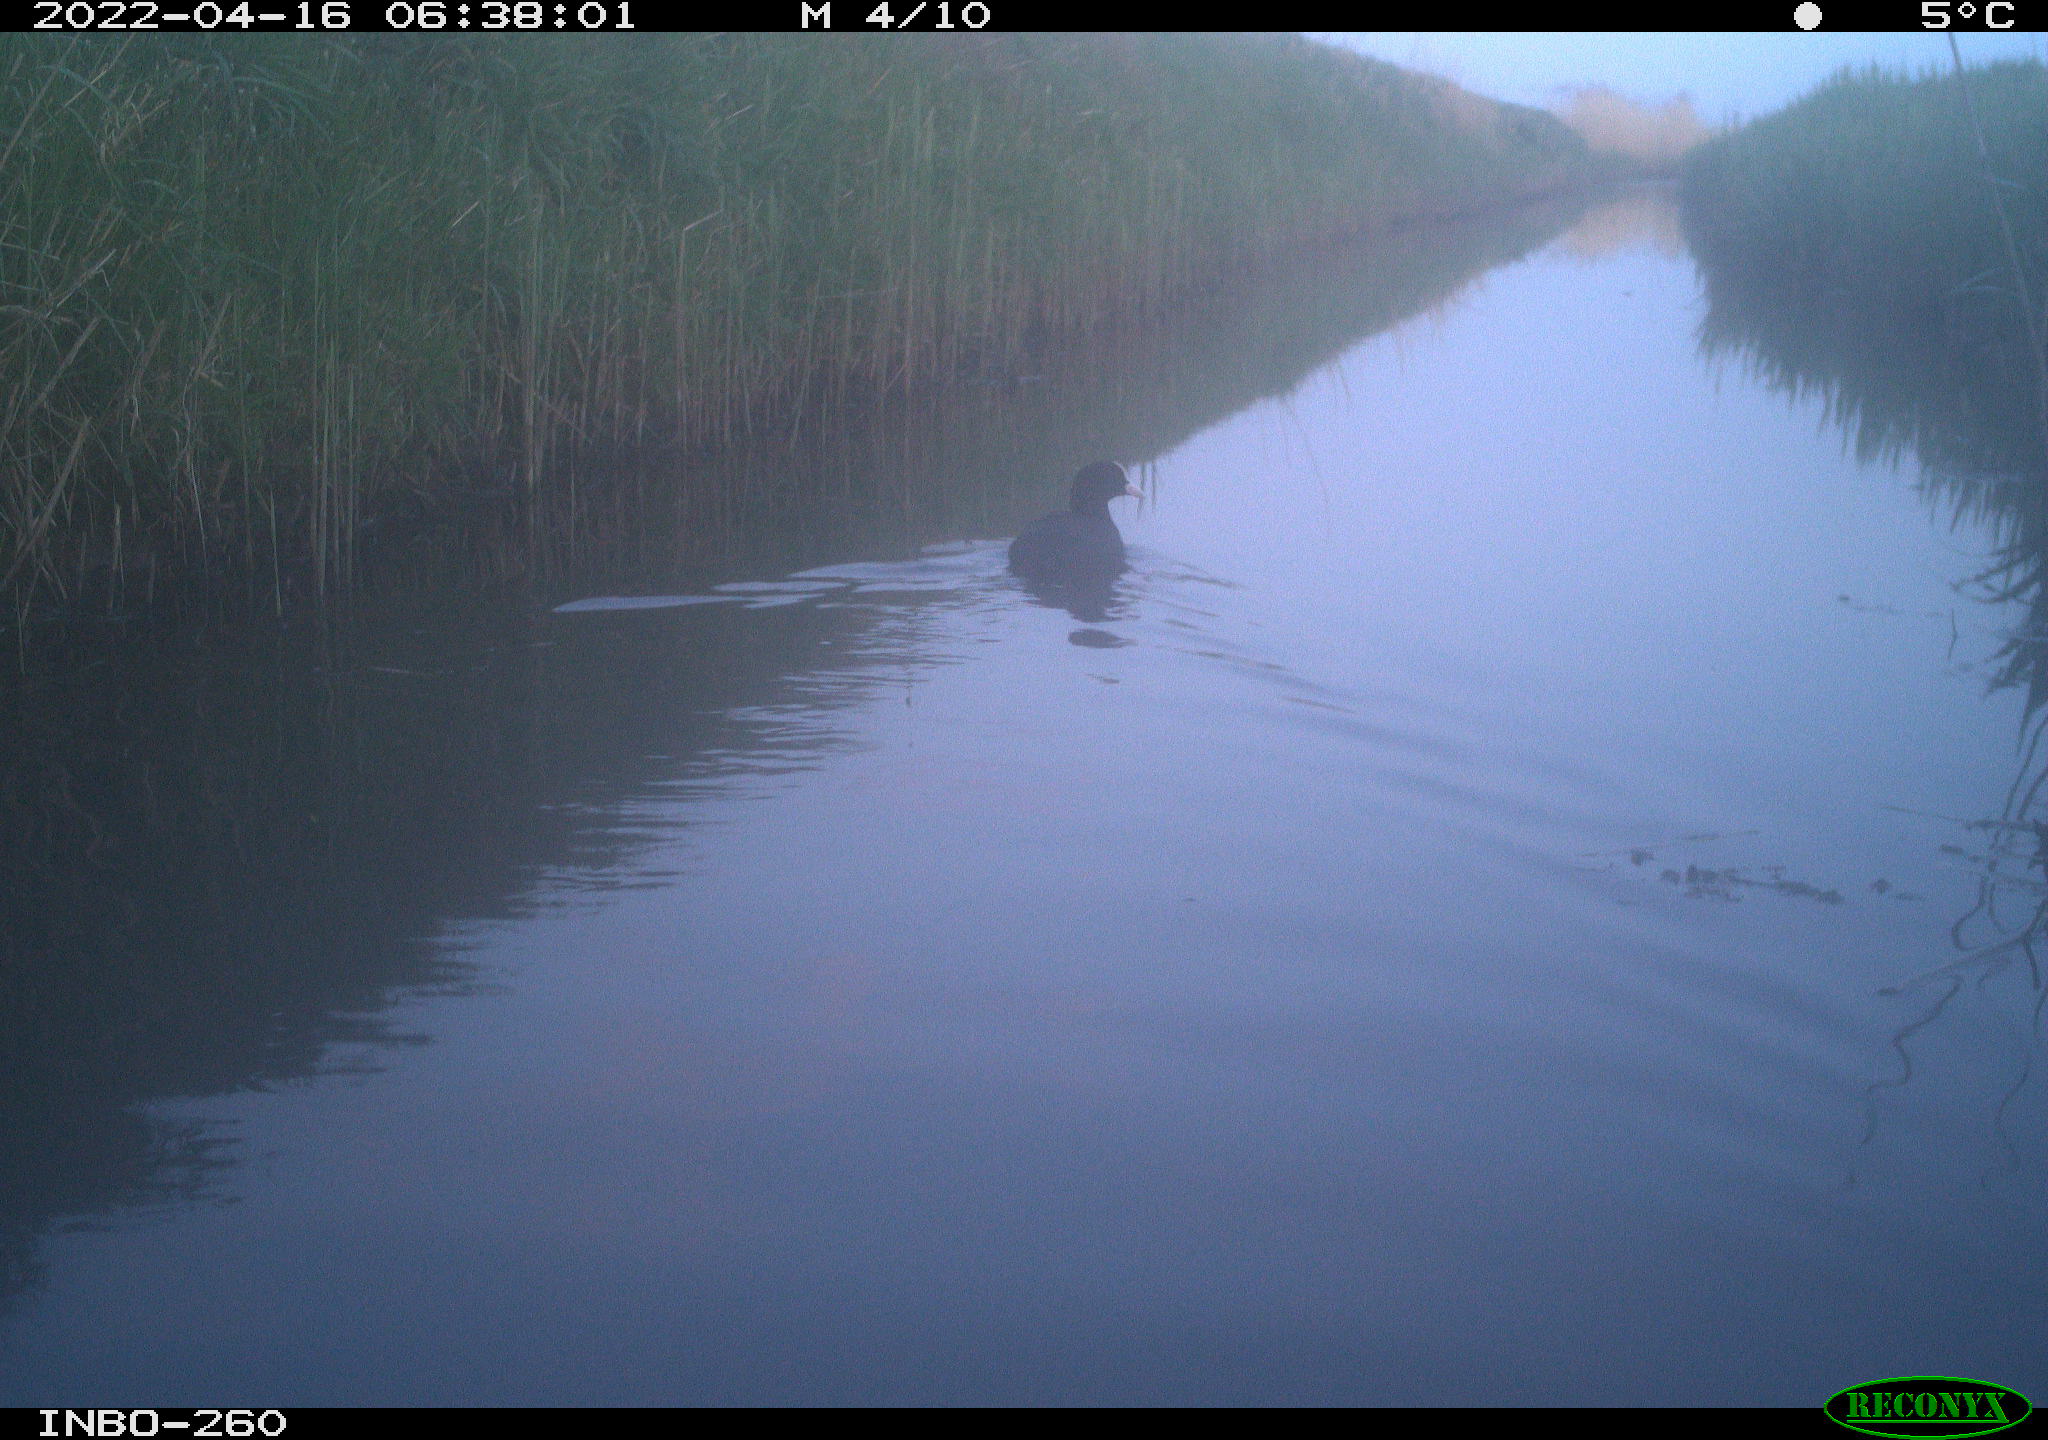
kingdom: Animalia
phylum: Chordata
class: Aves
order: Gruiformes
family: Rallidae
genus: Fulica
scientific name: Fulica atra
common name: Eurasian coot
